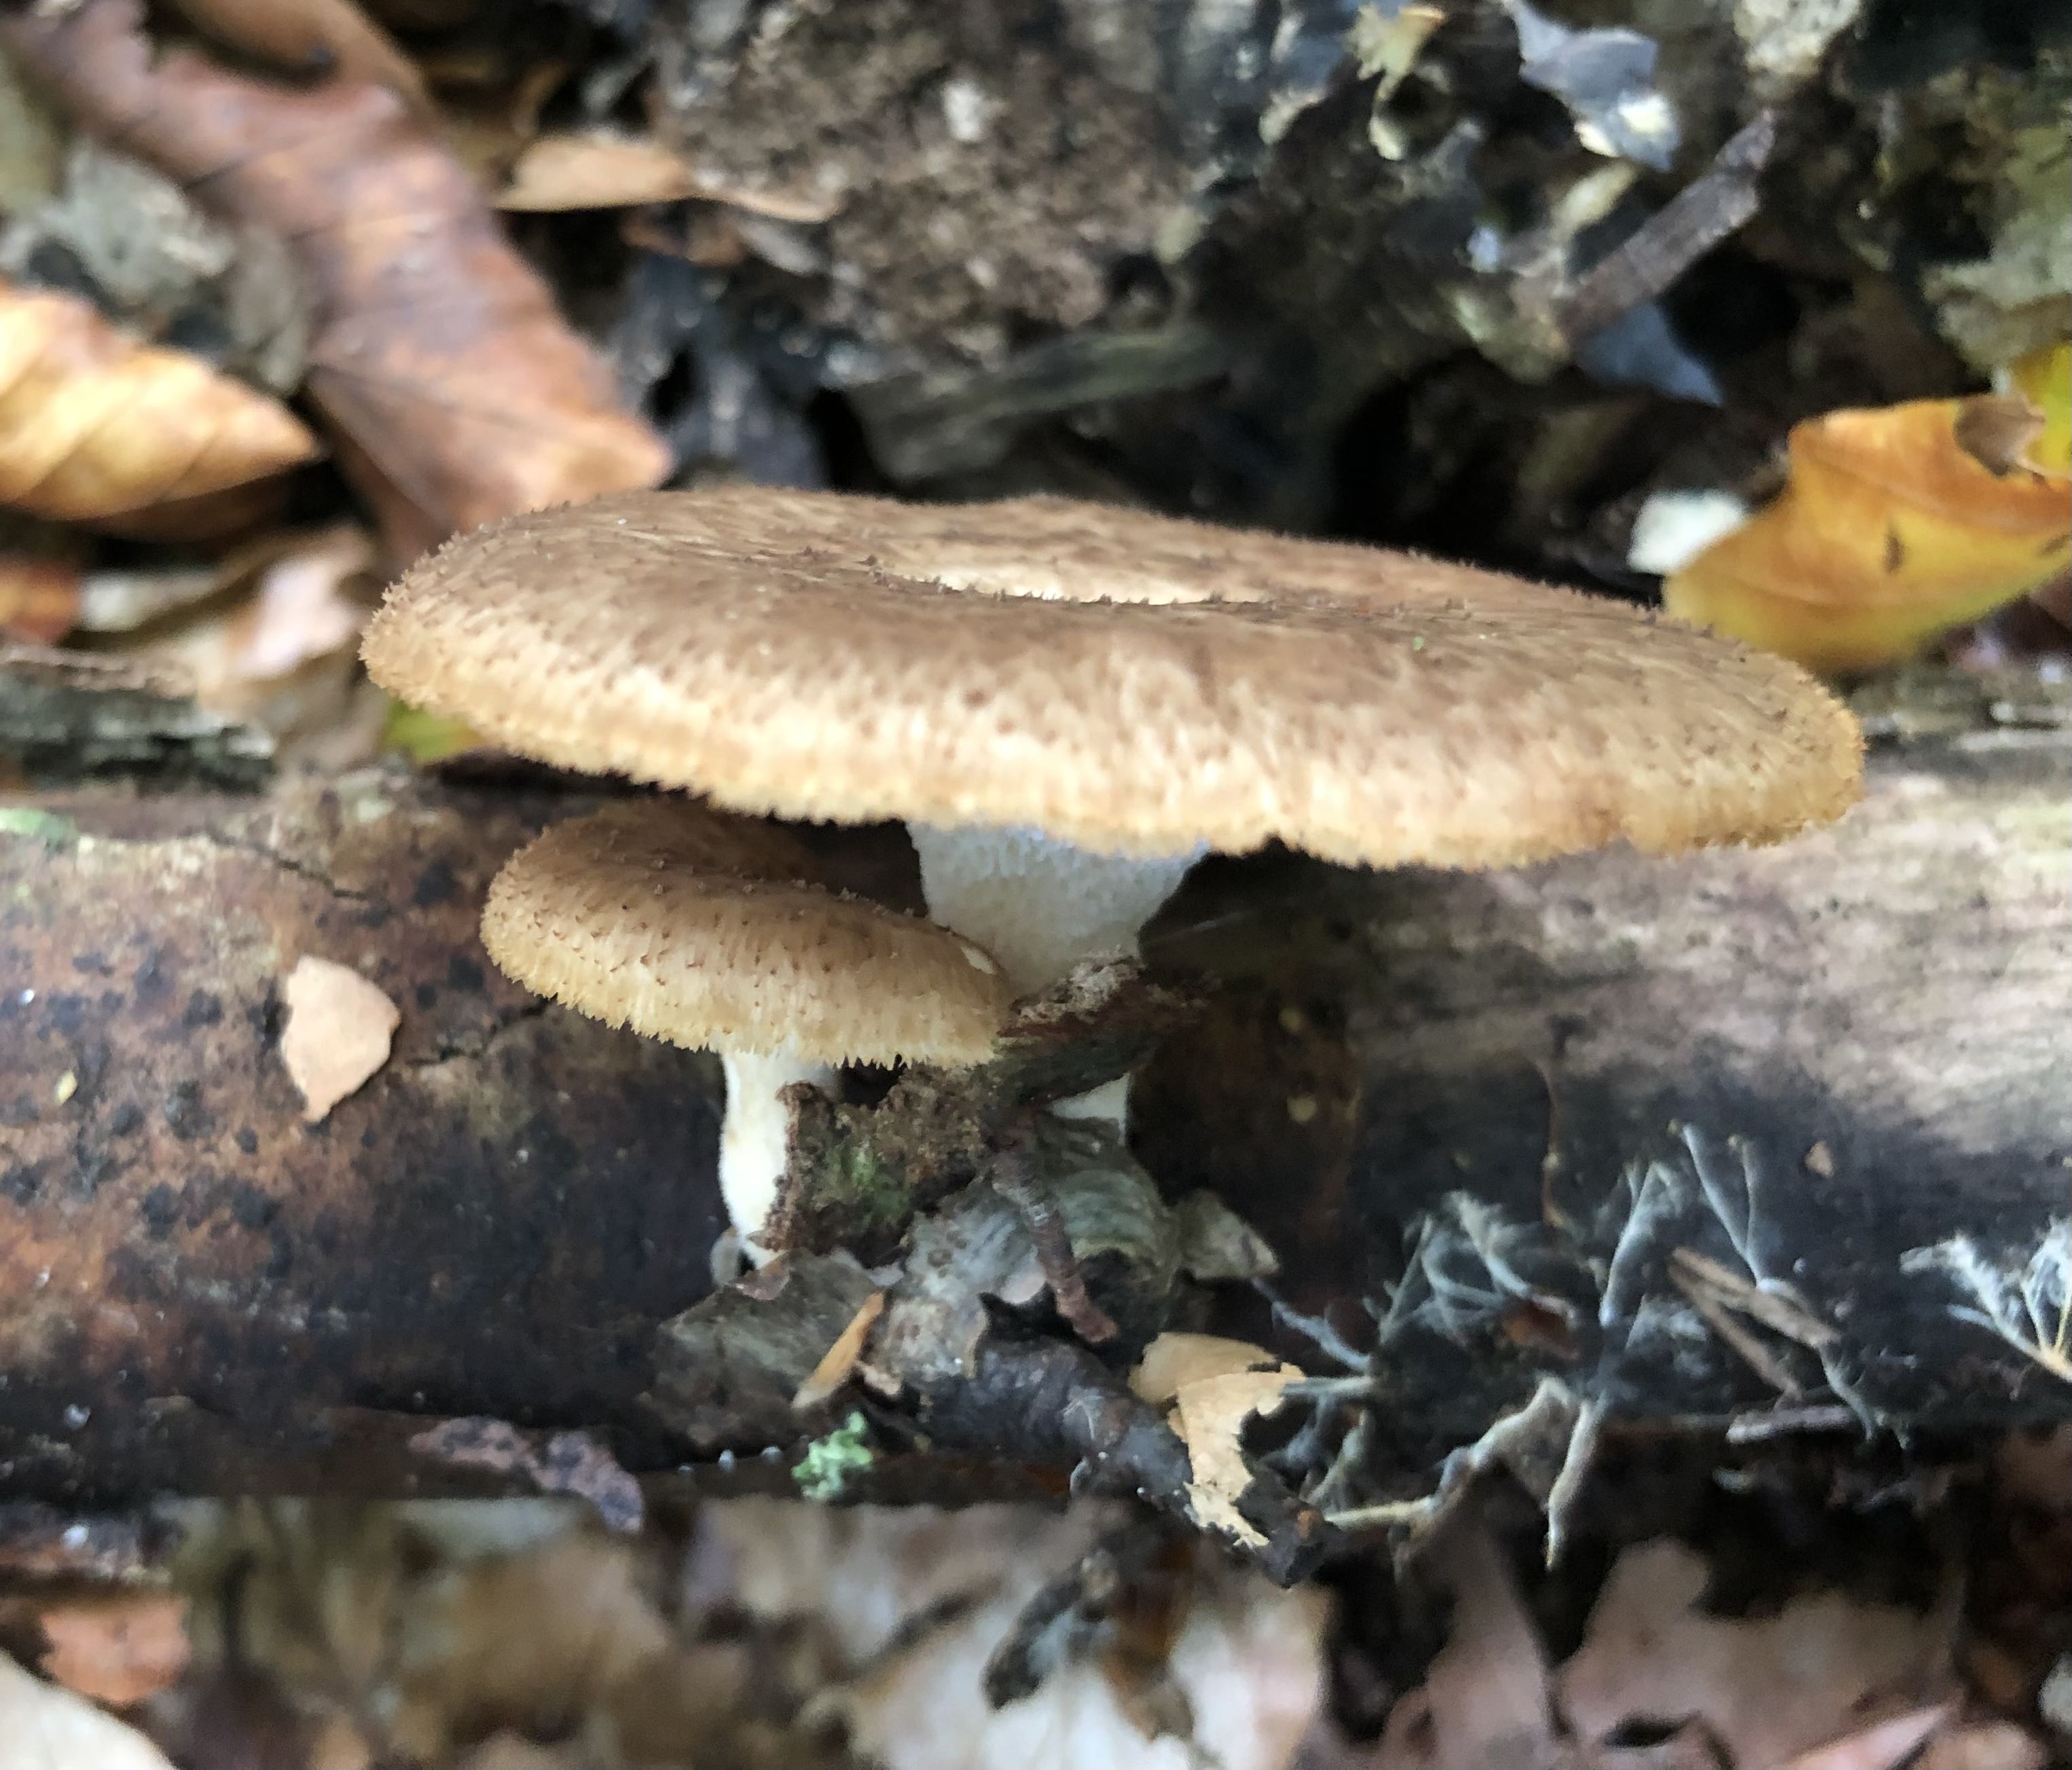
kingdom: Fungi
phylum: Basidiomycota
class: Agaricomycetes
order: Polyporales
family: Polyporaceae
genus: Lentinus
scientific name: Lentinus brumalis
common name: vinter-stilkporesvamp
